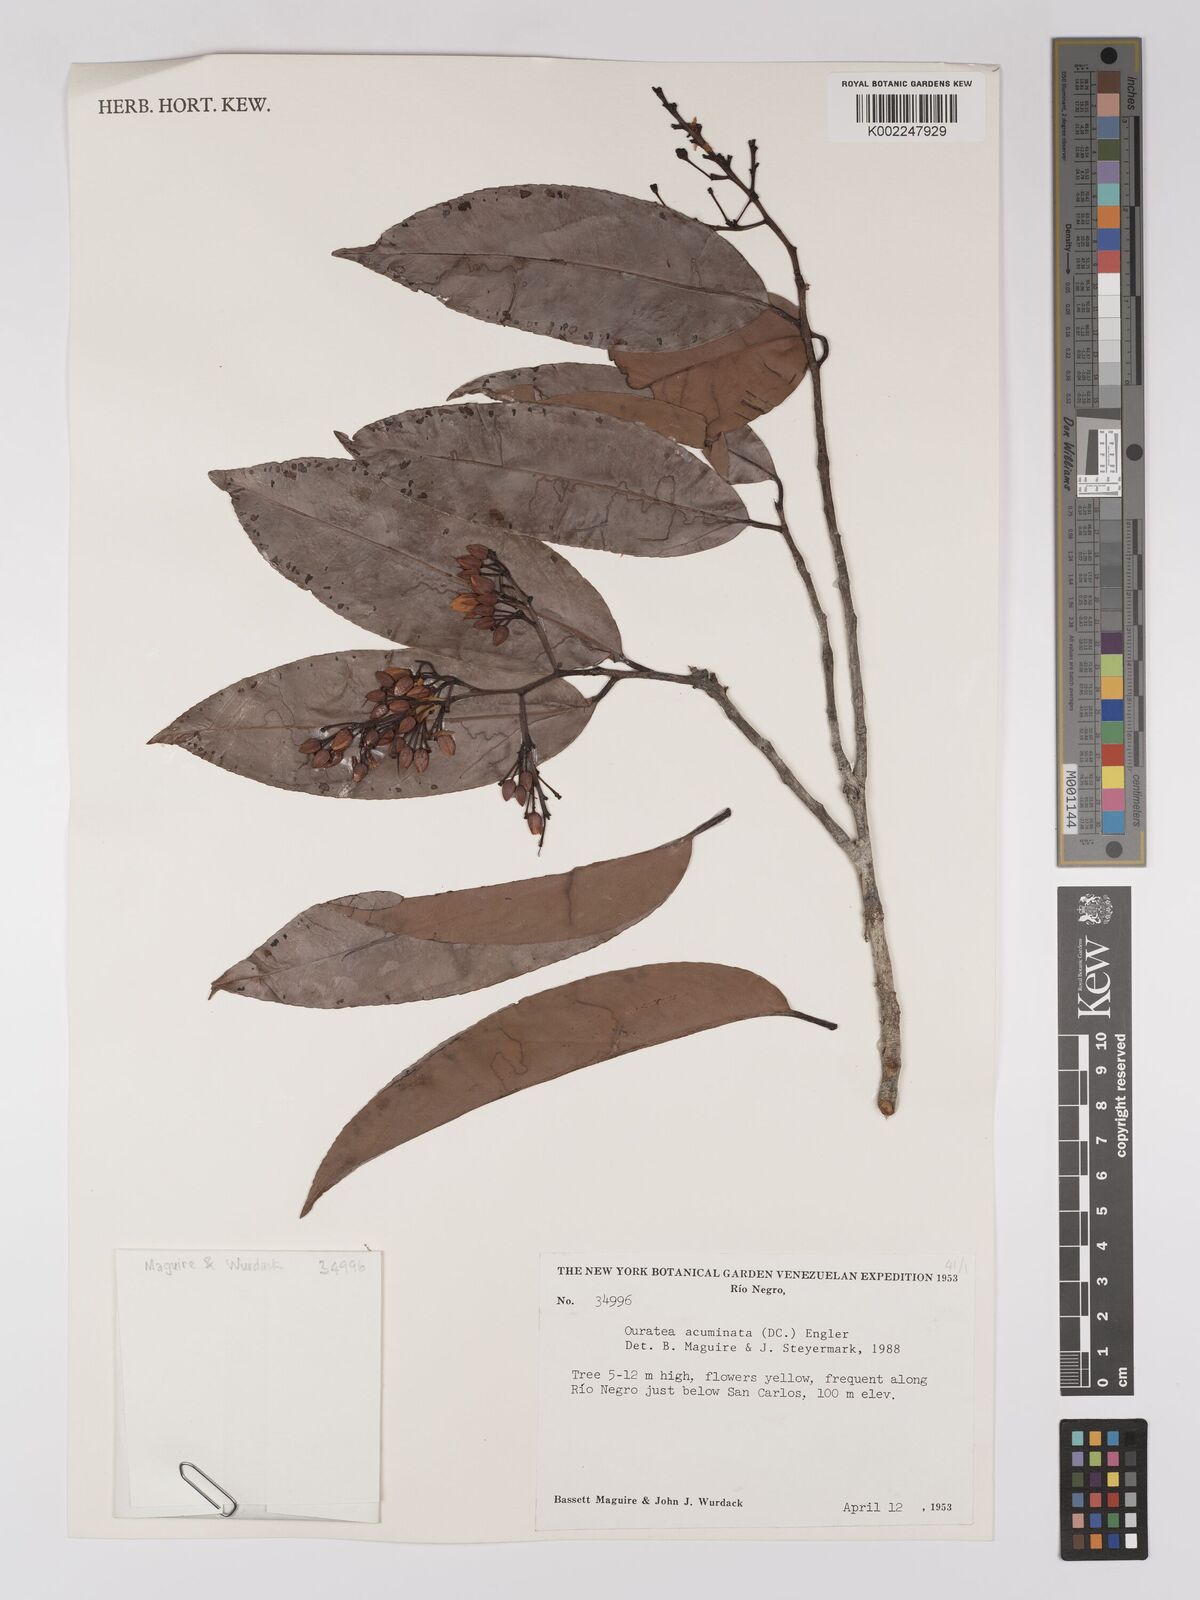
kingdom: Plantae
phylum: Tracheophyta
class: Magnoliopsida
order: Malpighiales
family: Ochnaceae
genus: Ouratea
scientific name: Ouratea acuminata
